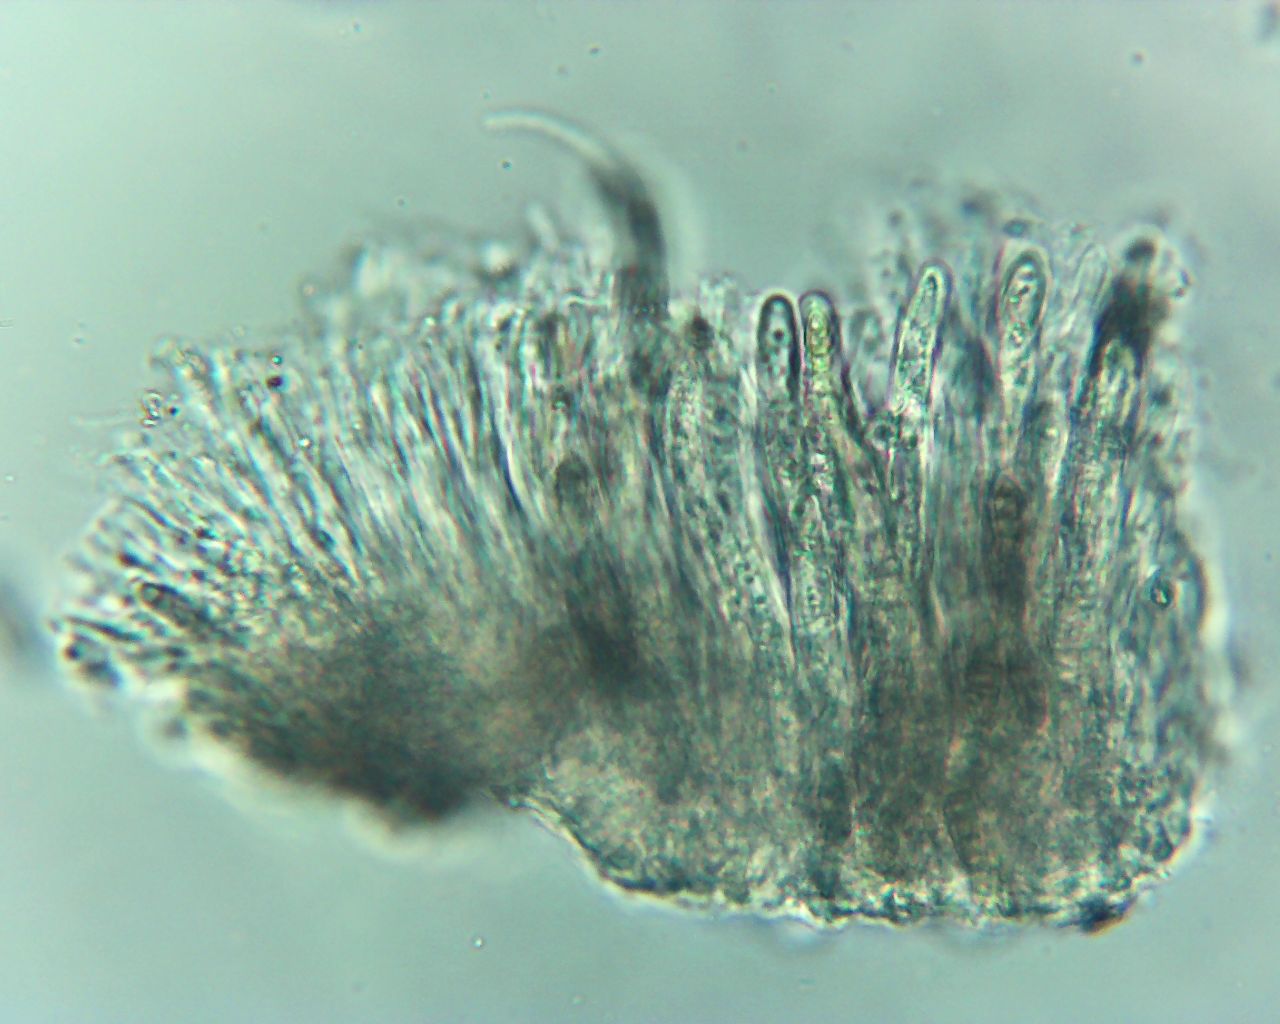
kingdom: Fungi
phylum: Ascomycota
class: Dothideomycetes
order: Pleosporales
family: Melanommataceae
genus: Melanomma
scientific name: Melanomma pulvis-pyrius
